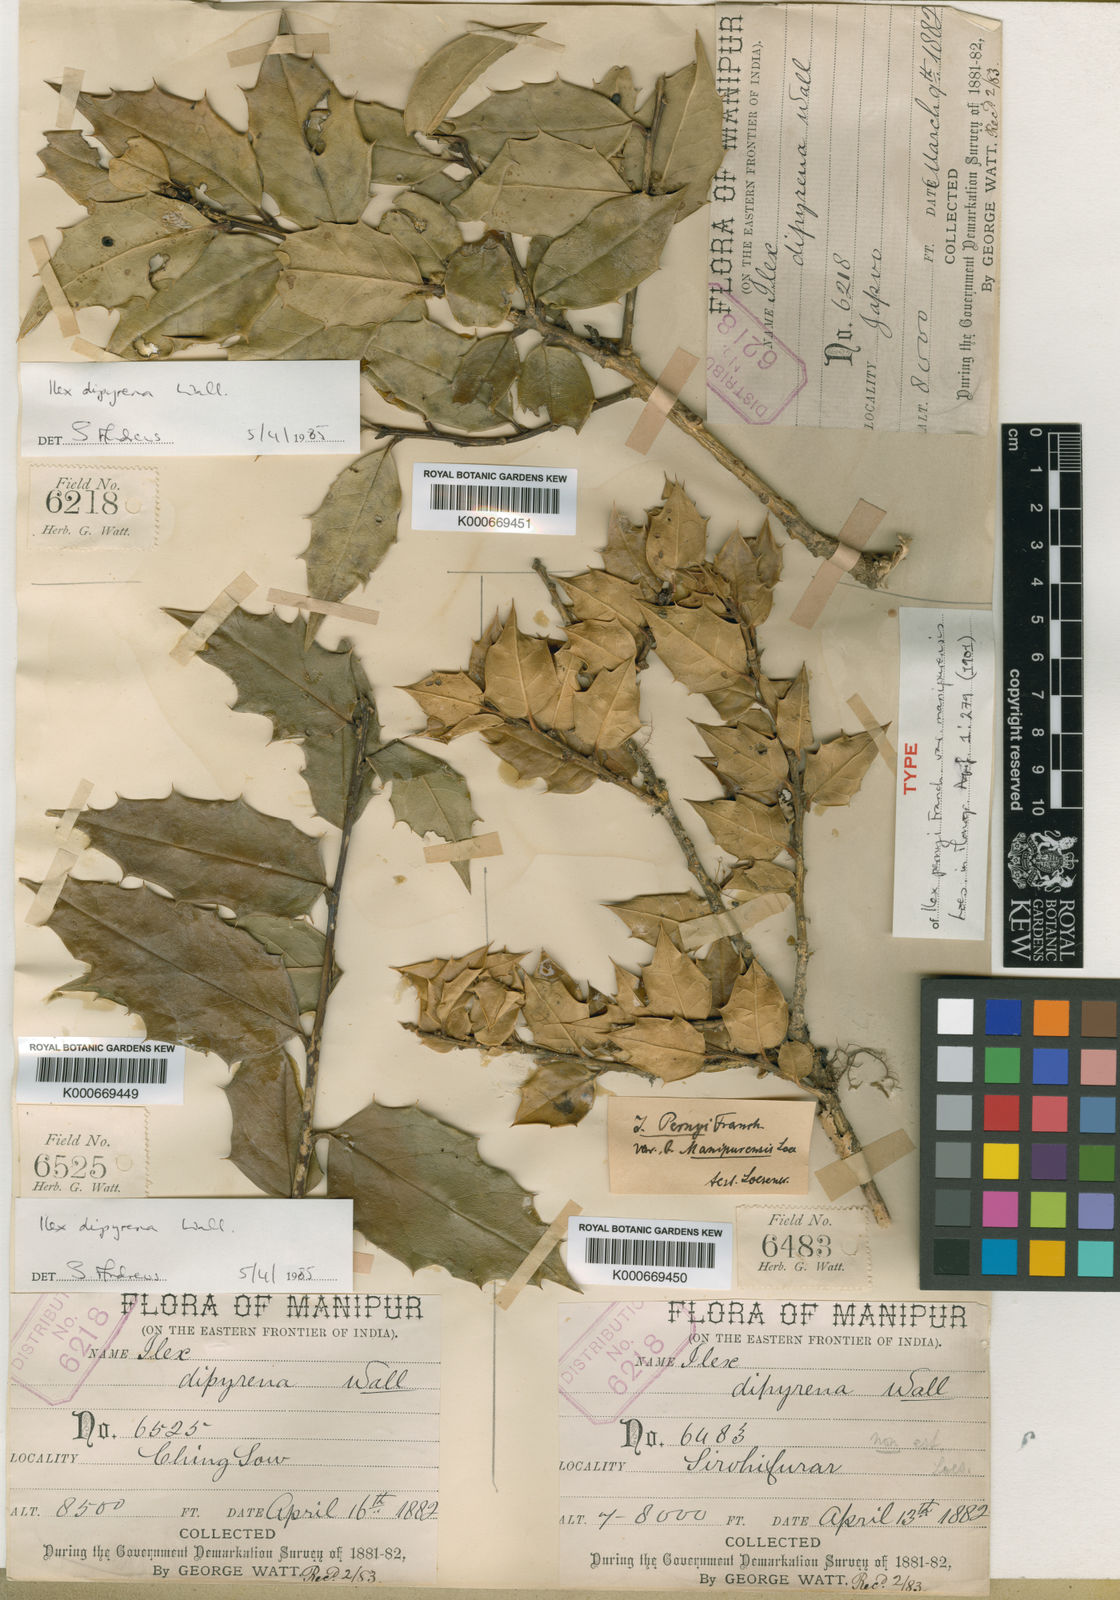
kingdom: Plantae
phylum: Tracheophyta
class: Magnoliopsida
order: Aquifoliales
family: Aquifoliaceae
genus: Ilex
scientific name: Ilex pernyi
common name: Perny's holly
